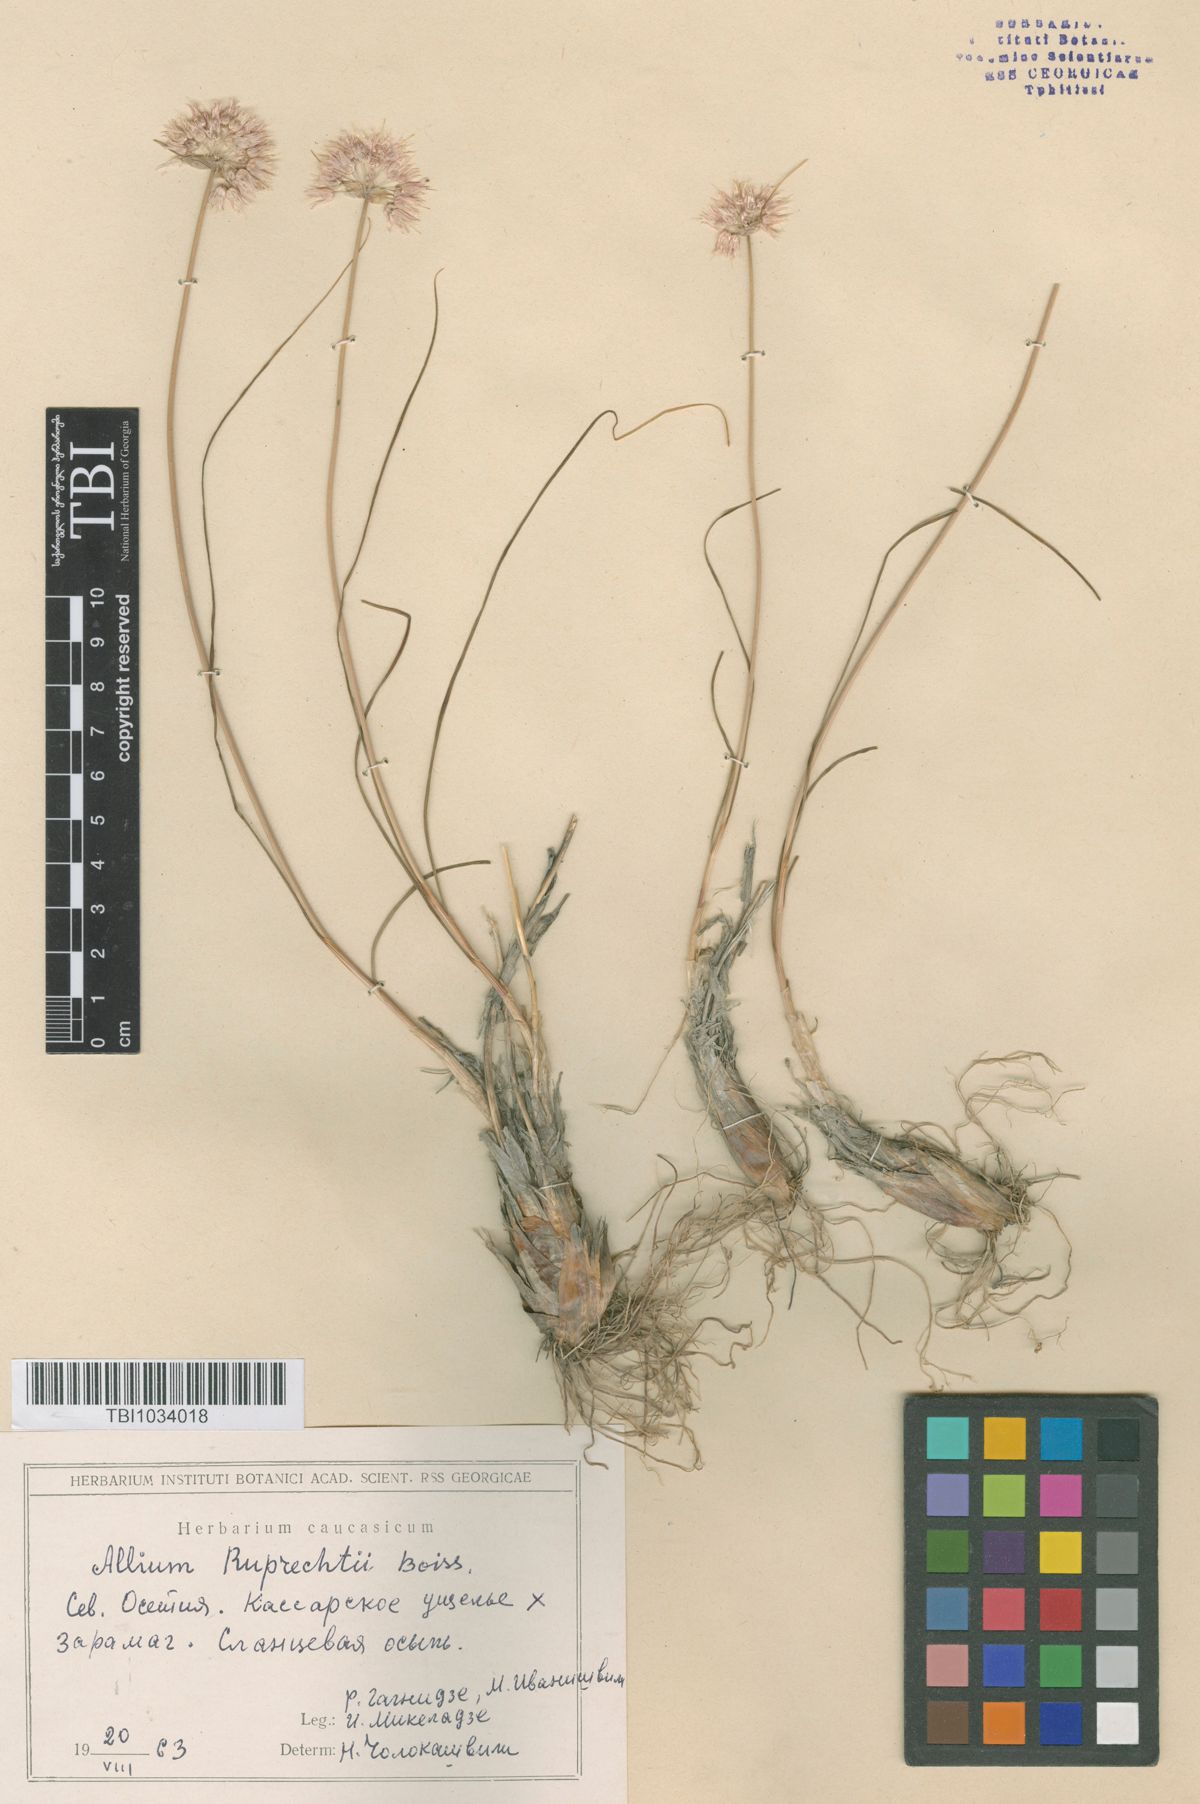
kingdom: Plantae
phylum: Tracheophyta
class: Liliopsida
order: Asparagales
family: Amaryllidaceae
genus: Allium
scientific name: Allium saxatile
